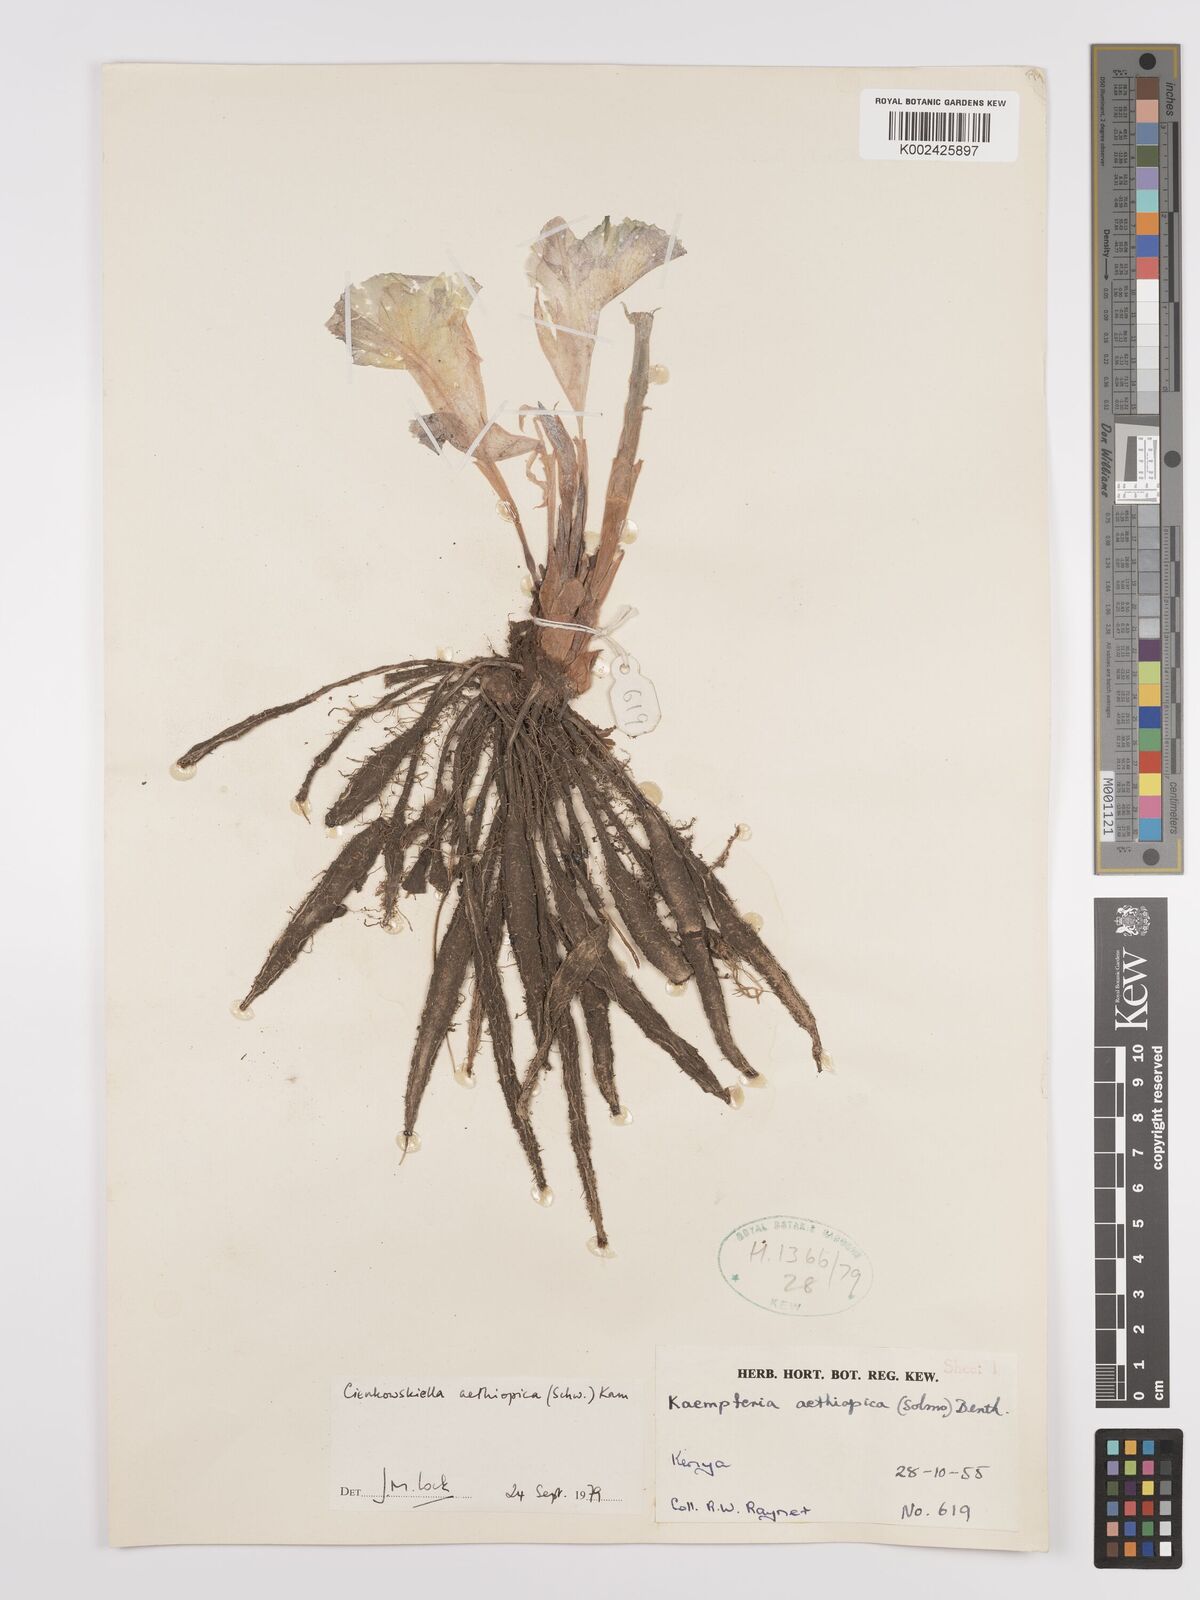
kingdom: Plantae
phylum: Tracheophyta
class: Liliopsida
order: Zingiberales
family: Zingiberaceae
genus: Siphonochilus
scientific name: Siphonochilus aethiopicus
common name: African-ginger
